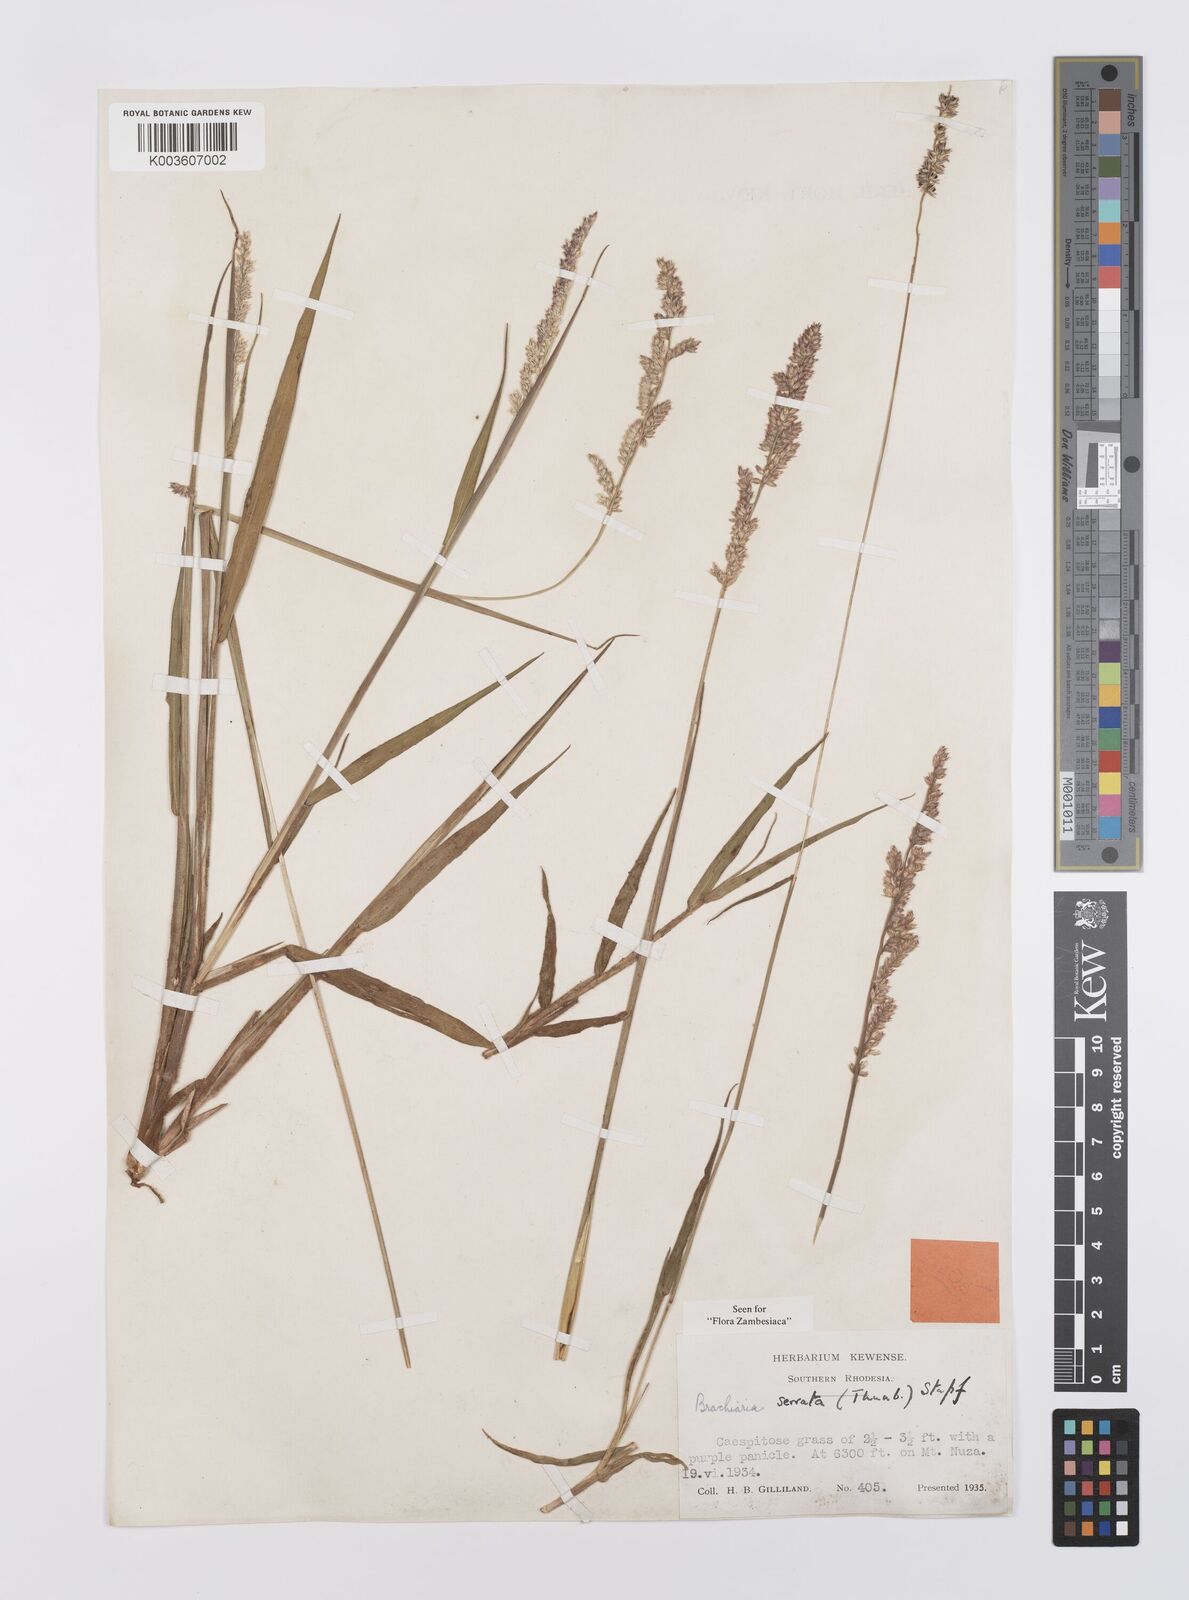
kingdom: Plantae
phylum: Tracheophyta
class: Liliopsida
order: Poales
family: Poaceae
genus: Urochloa
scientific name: Urochloa serrata
